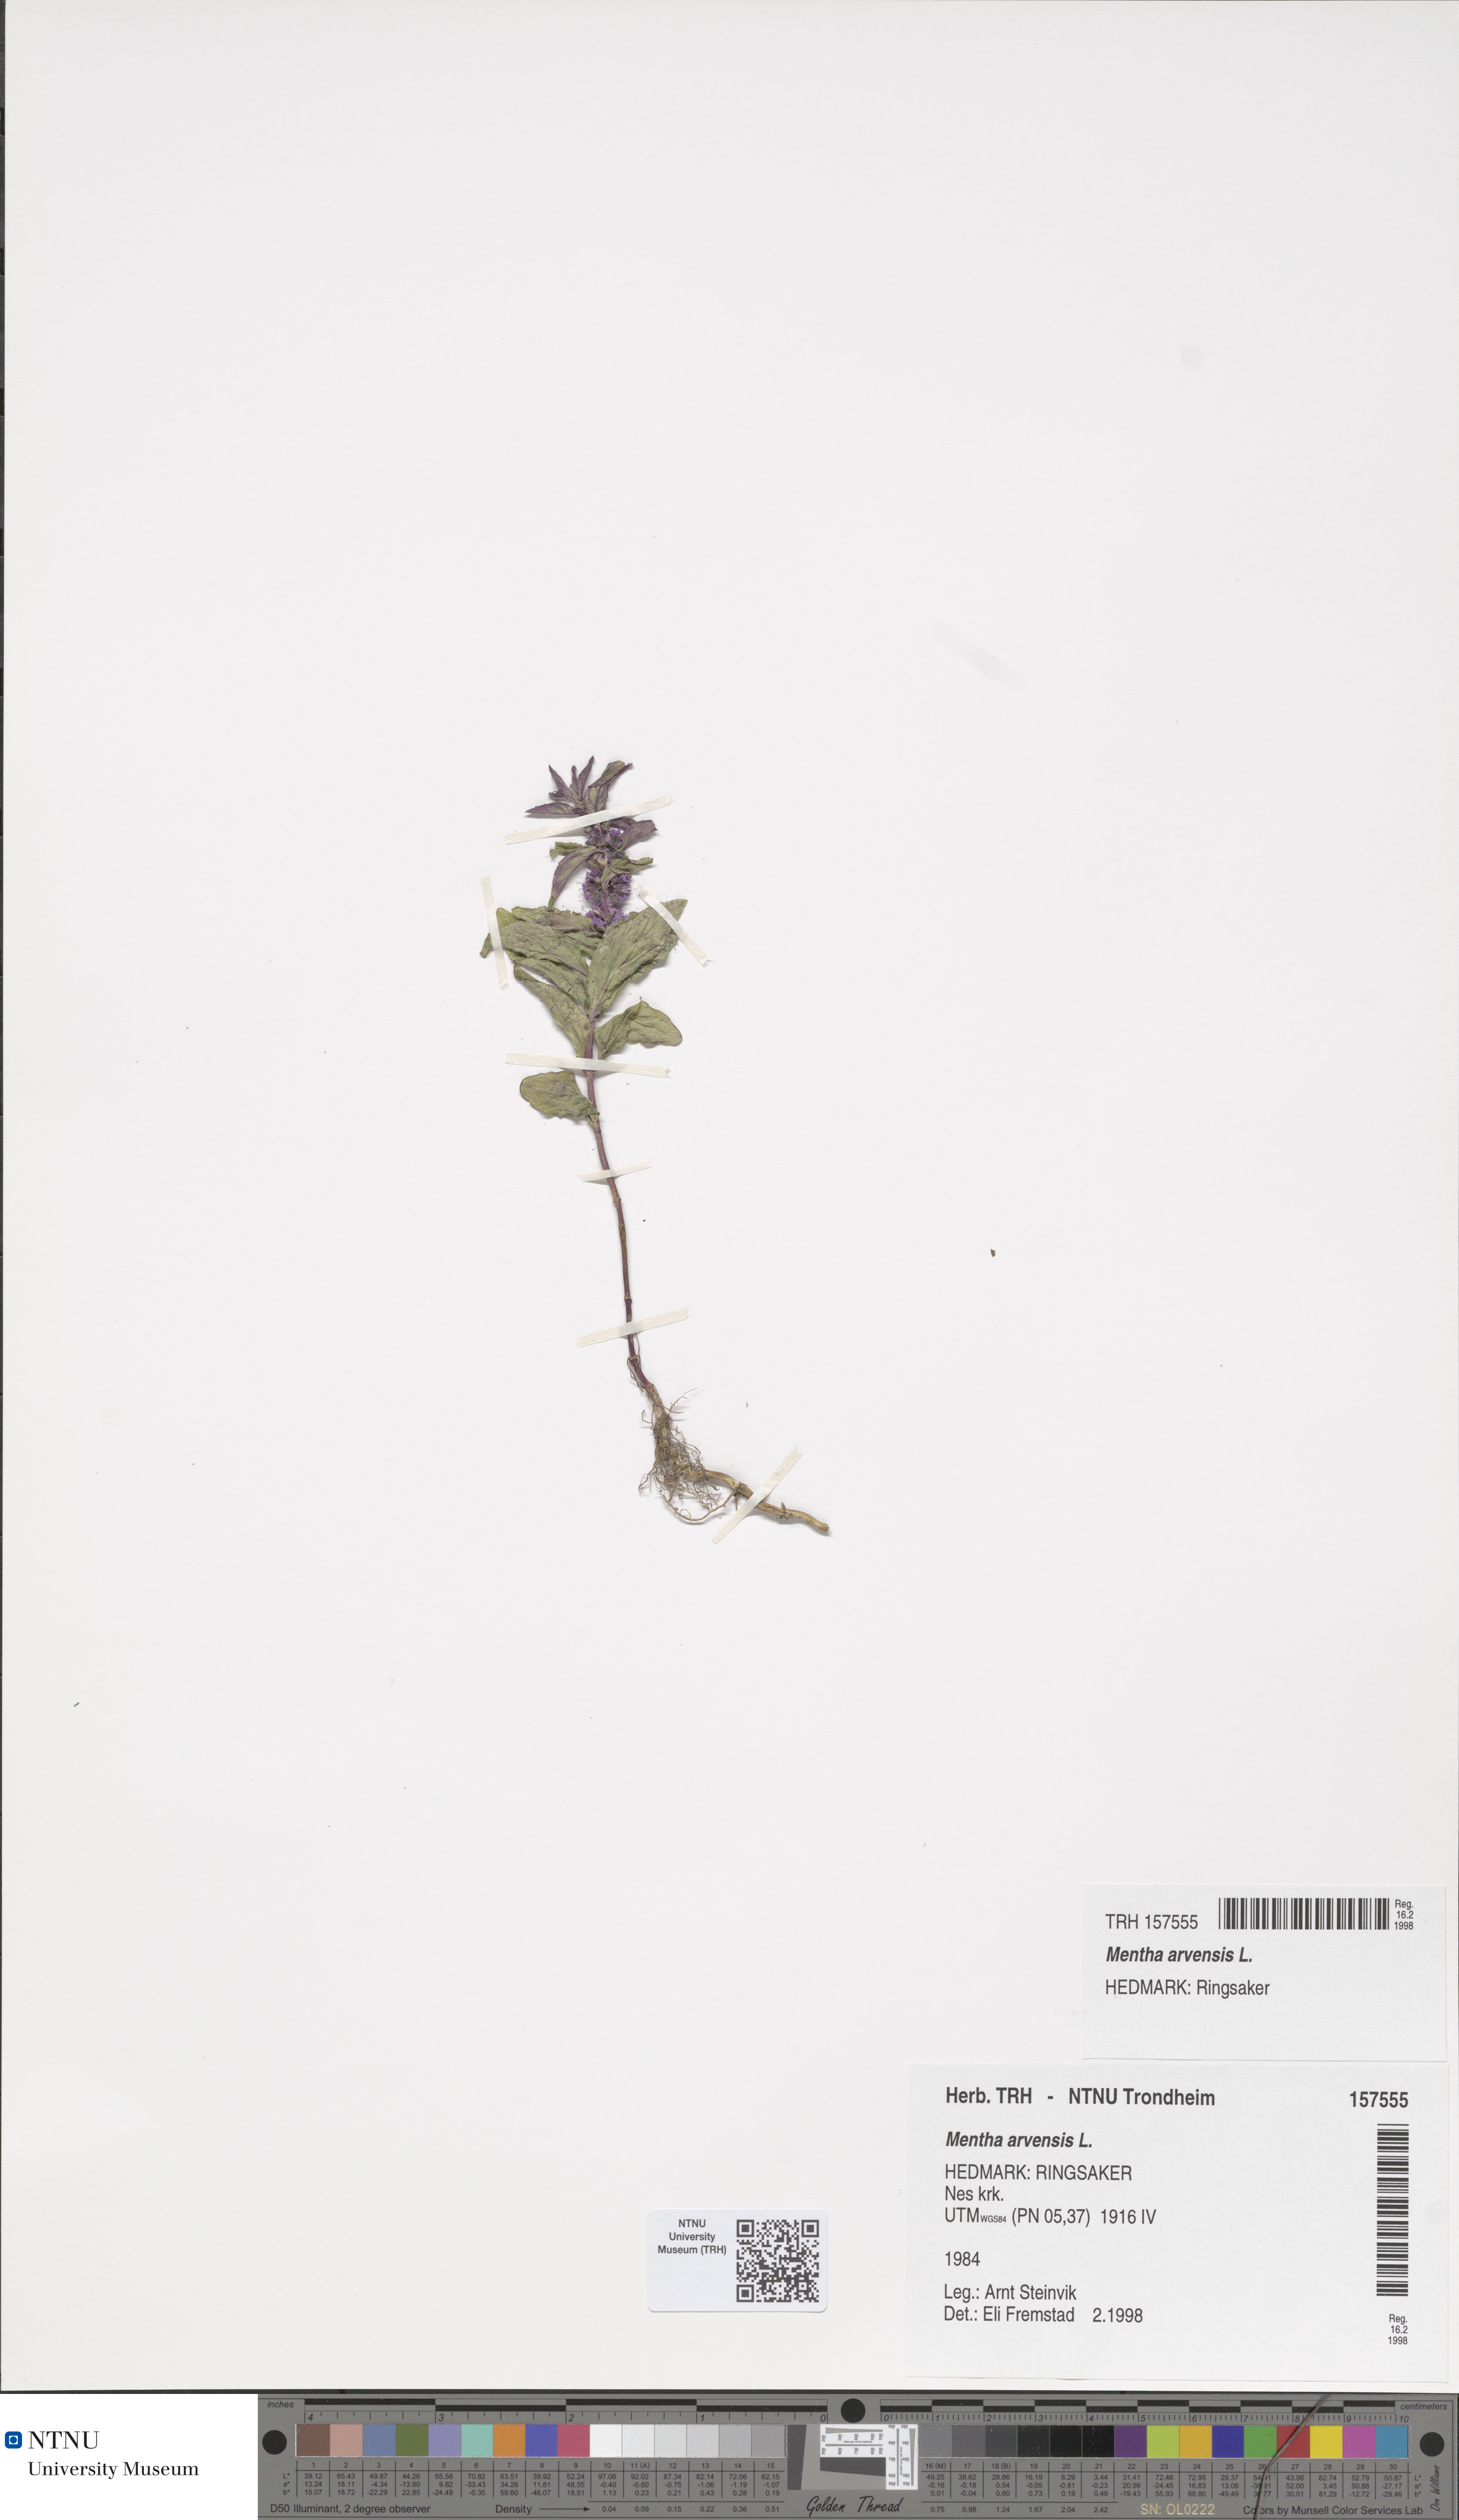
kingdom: Plantae
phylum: Tracheophyta
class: Magnoliopsida
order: Lamiales
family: Lamiaceae
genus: Mentha
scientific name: Mentha arvensis
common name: Corn mint
